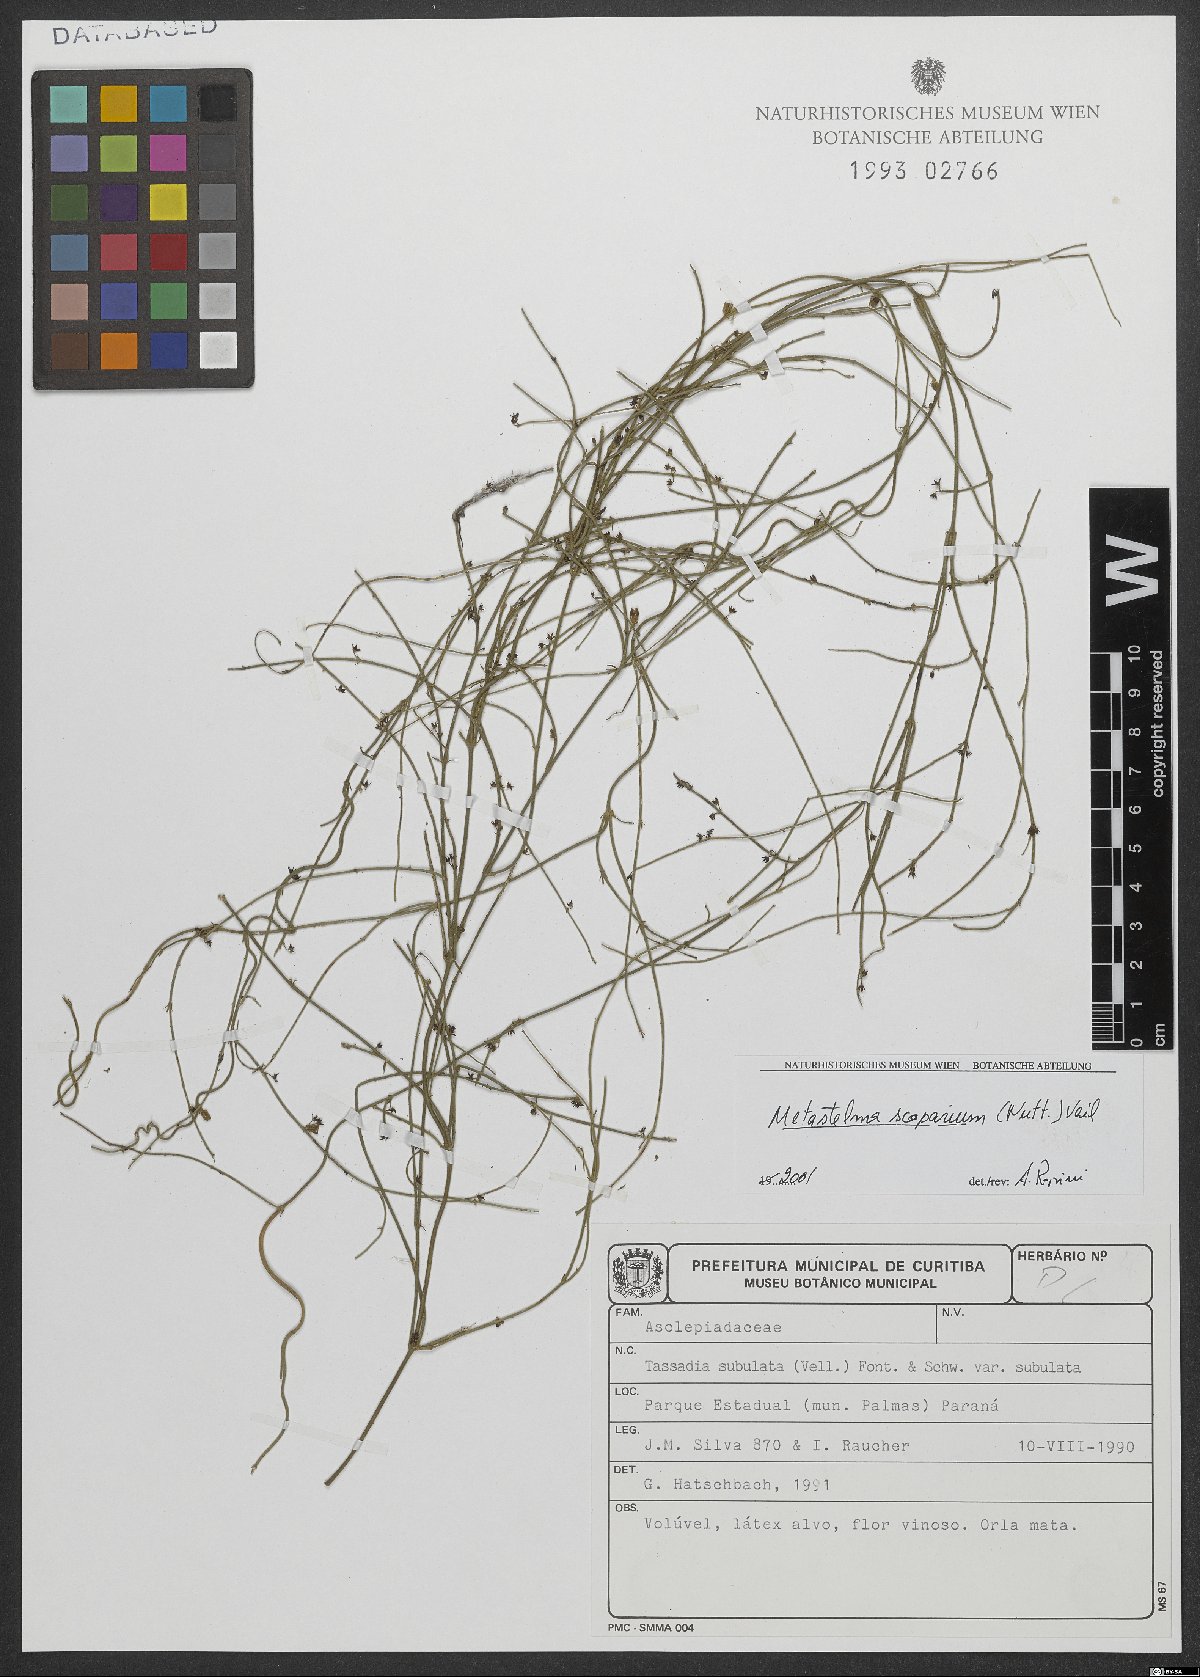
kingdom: Plantae
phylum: Tracheophyta
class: Magnoliopsida
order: Gentianales
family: Apocynaceae
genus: Orthosia
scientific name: Orthosia scoparia
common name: Leafless swallow-wort
